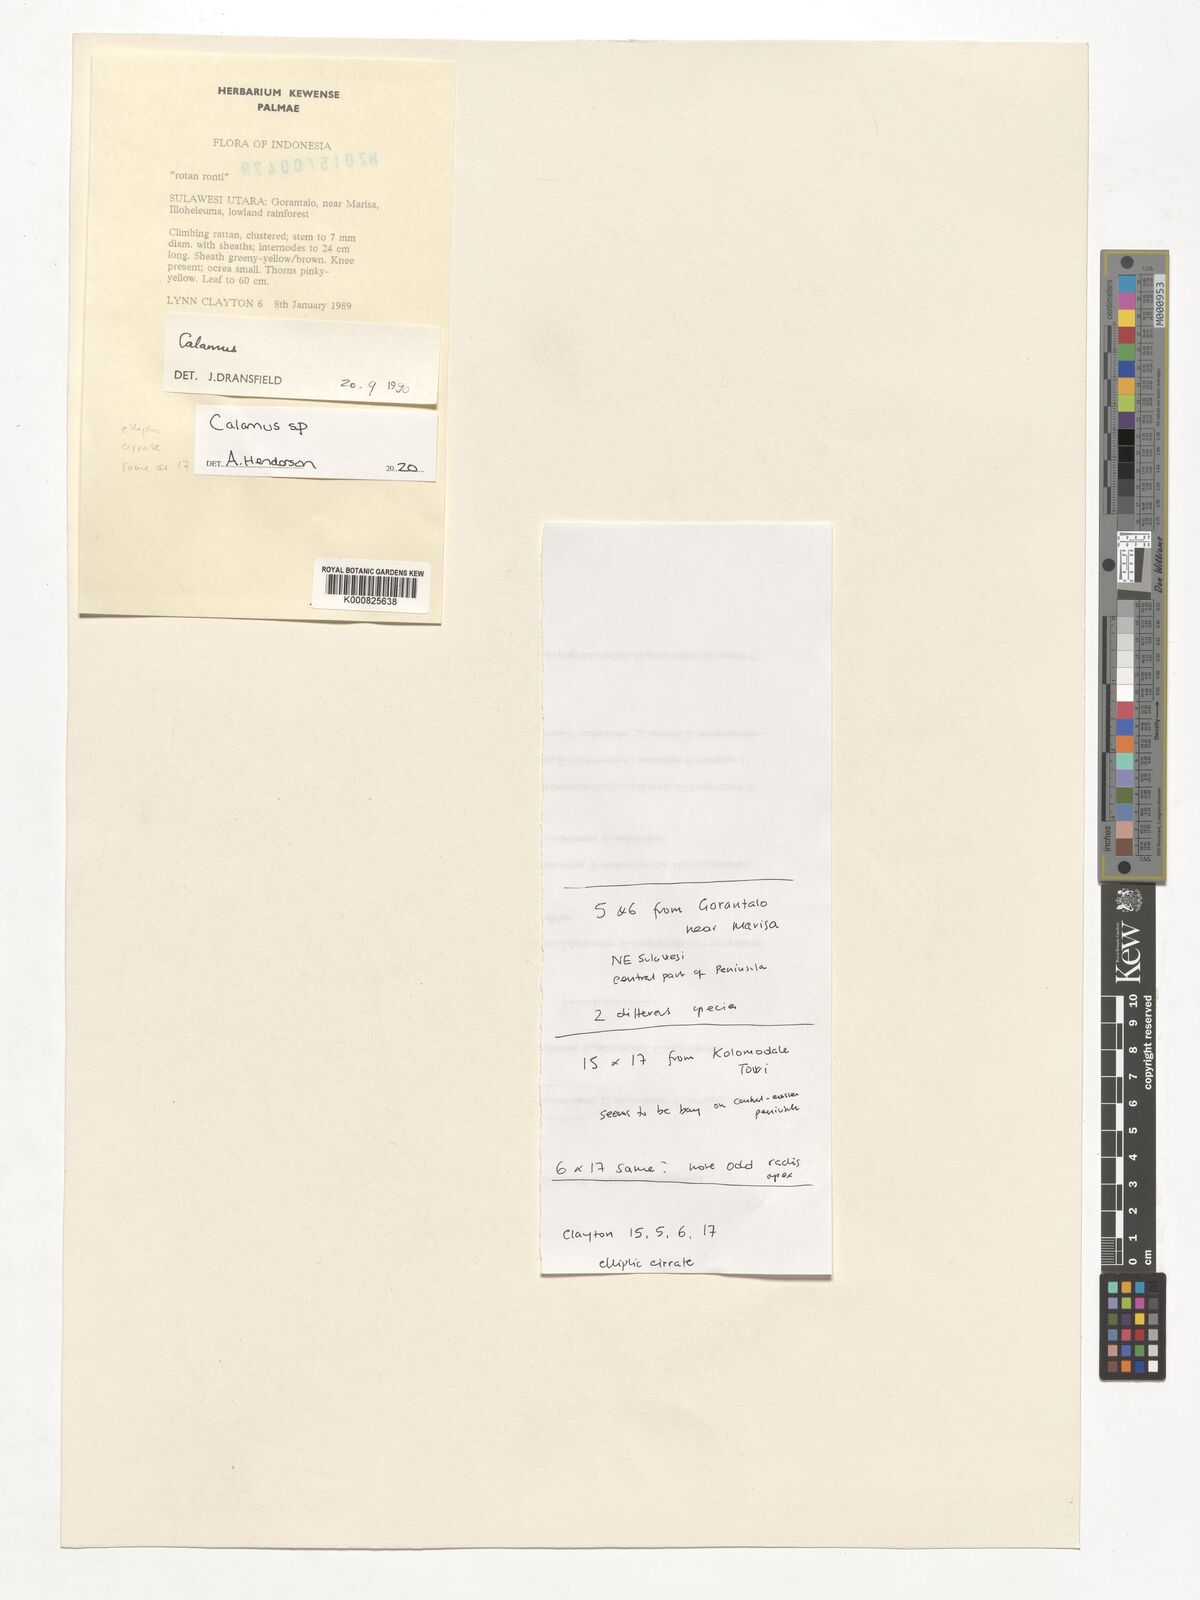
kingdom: Plantae
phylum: Tracheophyta
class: Liliopsida
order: Arecales
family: Arecaceae
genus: Calamus
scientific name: Calamus
